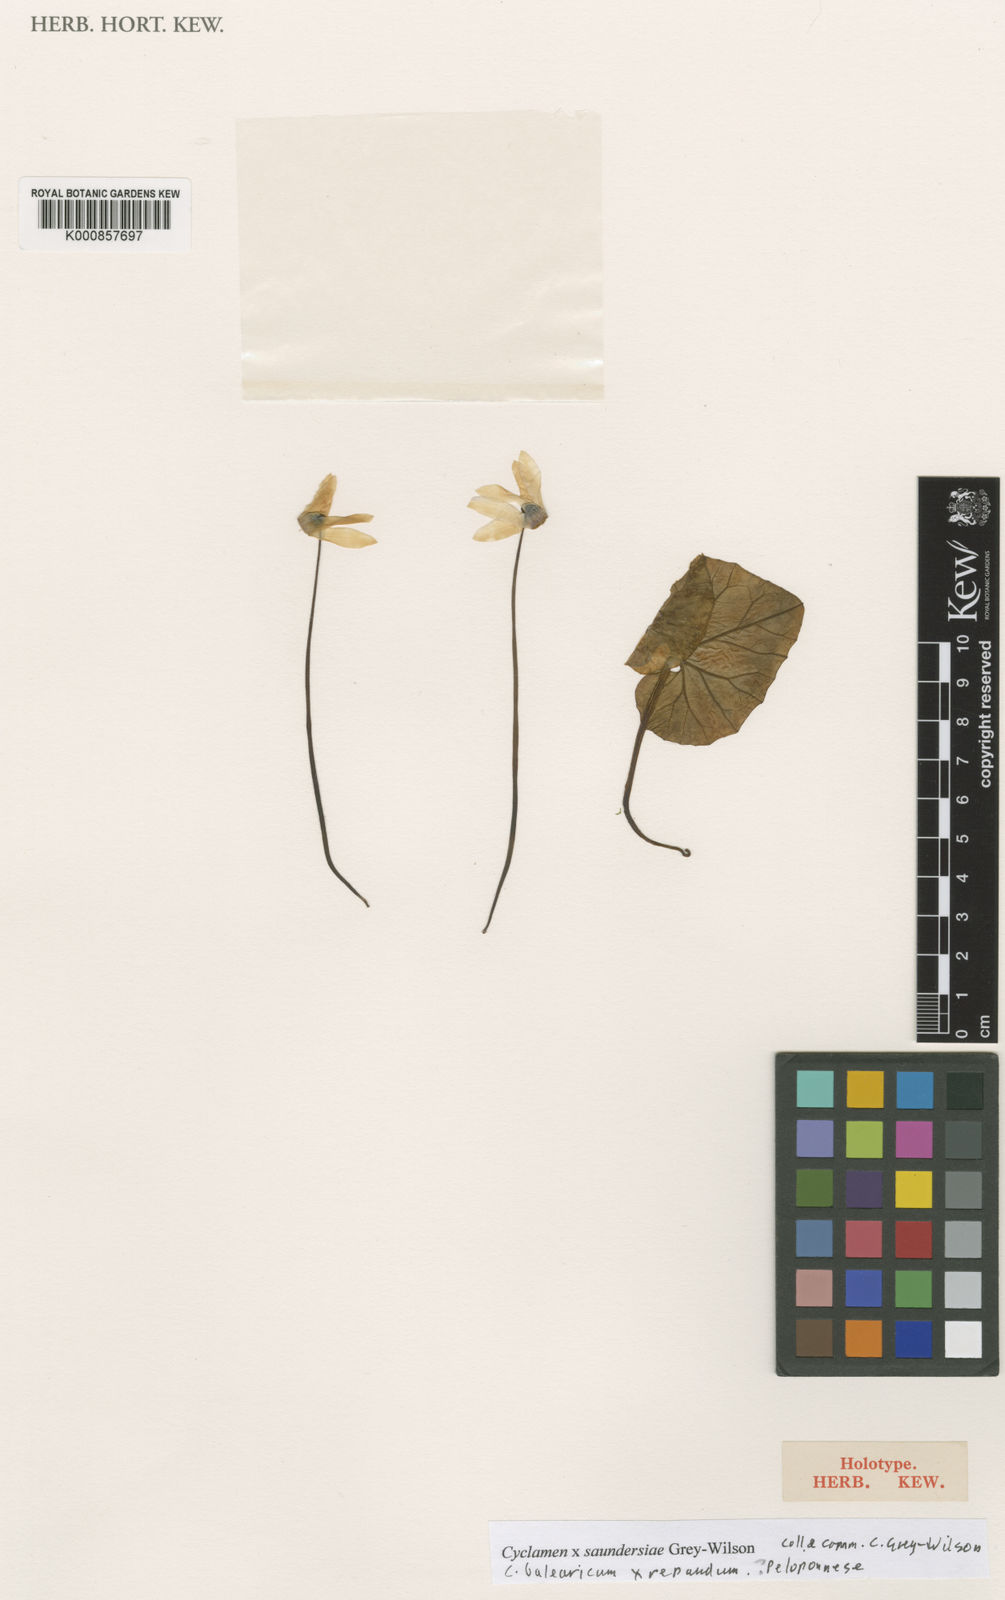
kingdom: Plantae
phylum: Tracheophyta
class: Magnoliopsida
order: Ericales
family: Primulaceae
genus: Cyclamen
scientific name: Cyclamen saundersii
